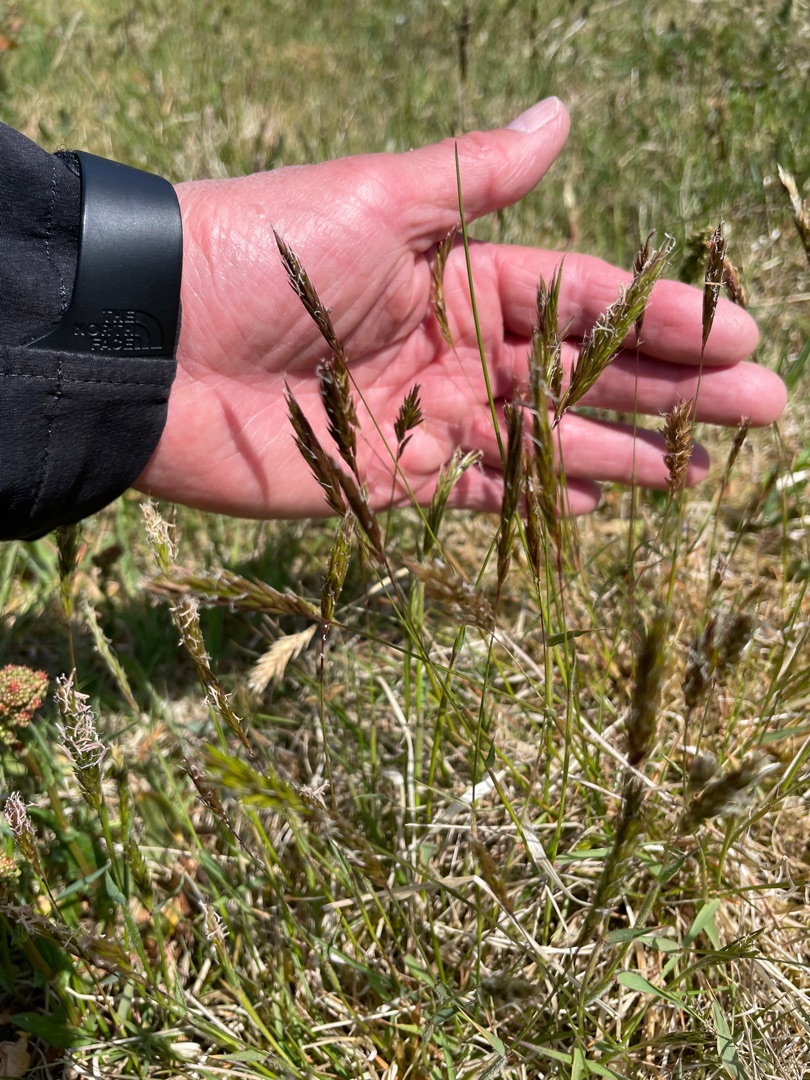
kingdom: Plantae
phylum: Tracheophyta
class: Liliopsida
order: Poales
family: Poaceae
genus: Anthoxanthum
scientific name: Anthoxanthum odoratum
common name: Vellugtende gulaks
